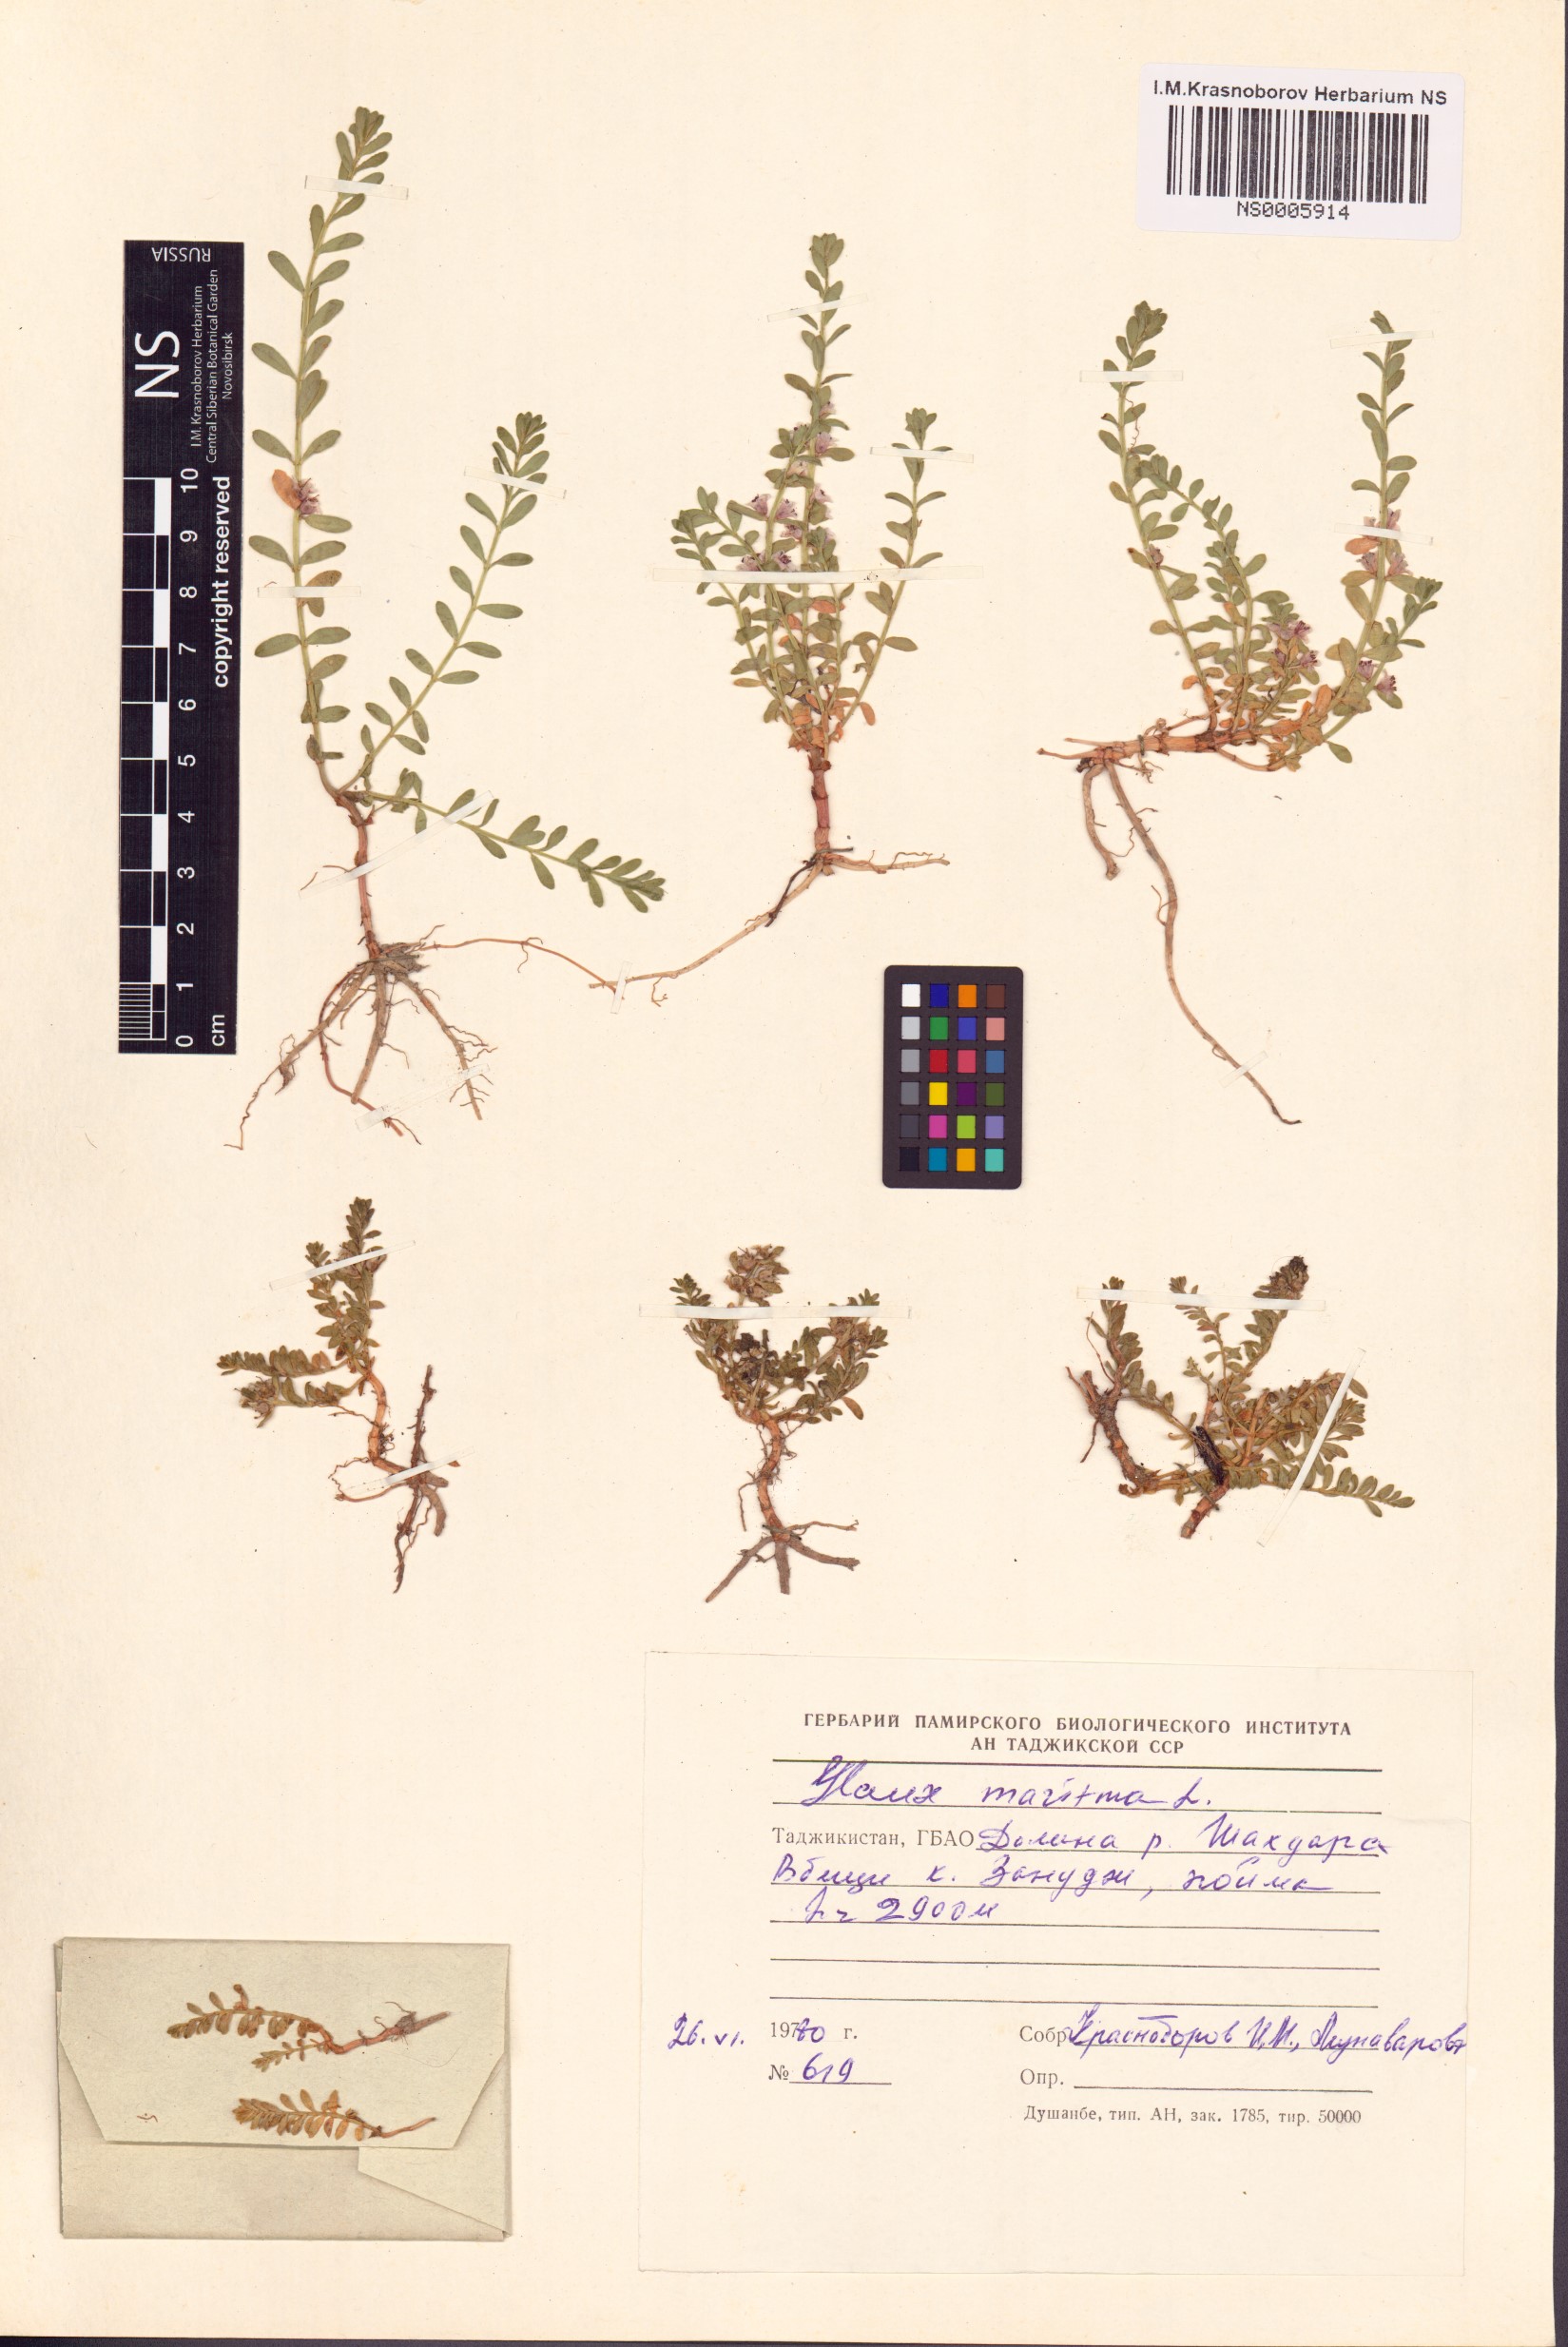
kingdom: Plantae
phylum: Tracheophyta
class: Magnoliopsida
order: Ericales
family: Primulaceae
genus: Lysimachia
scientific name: Lysimachia maritima
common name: Sea milkwort
